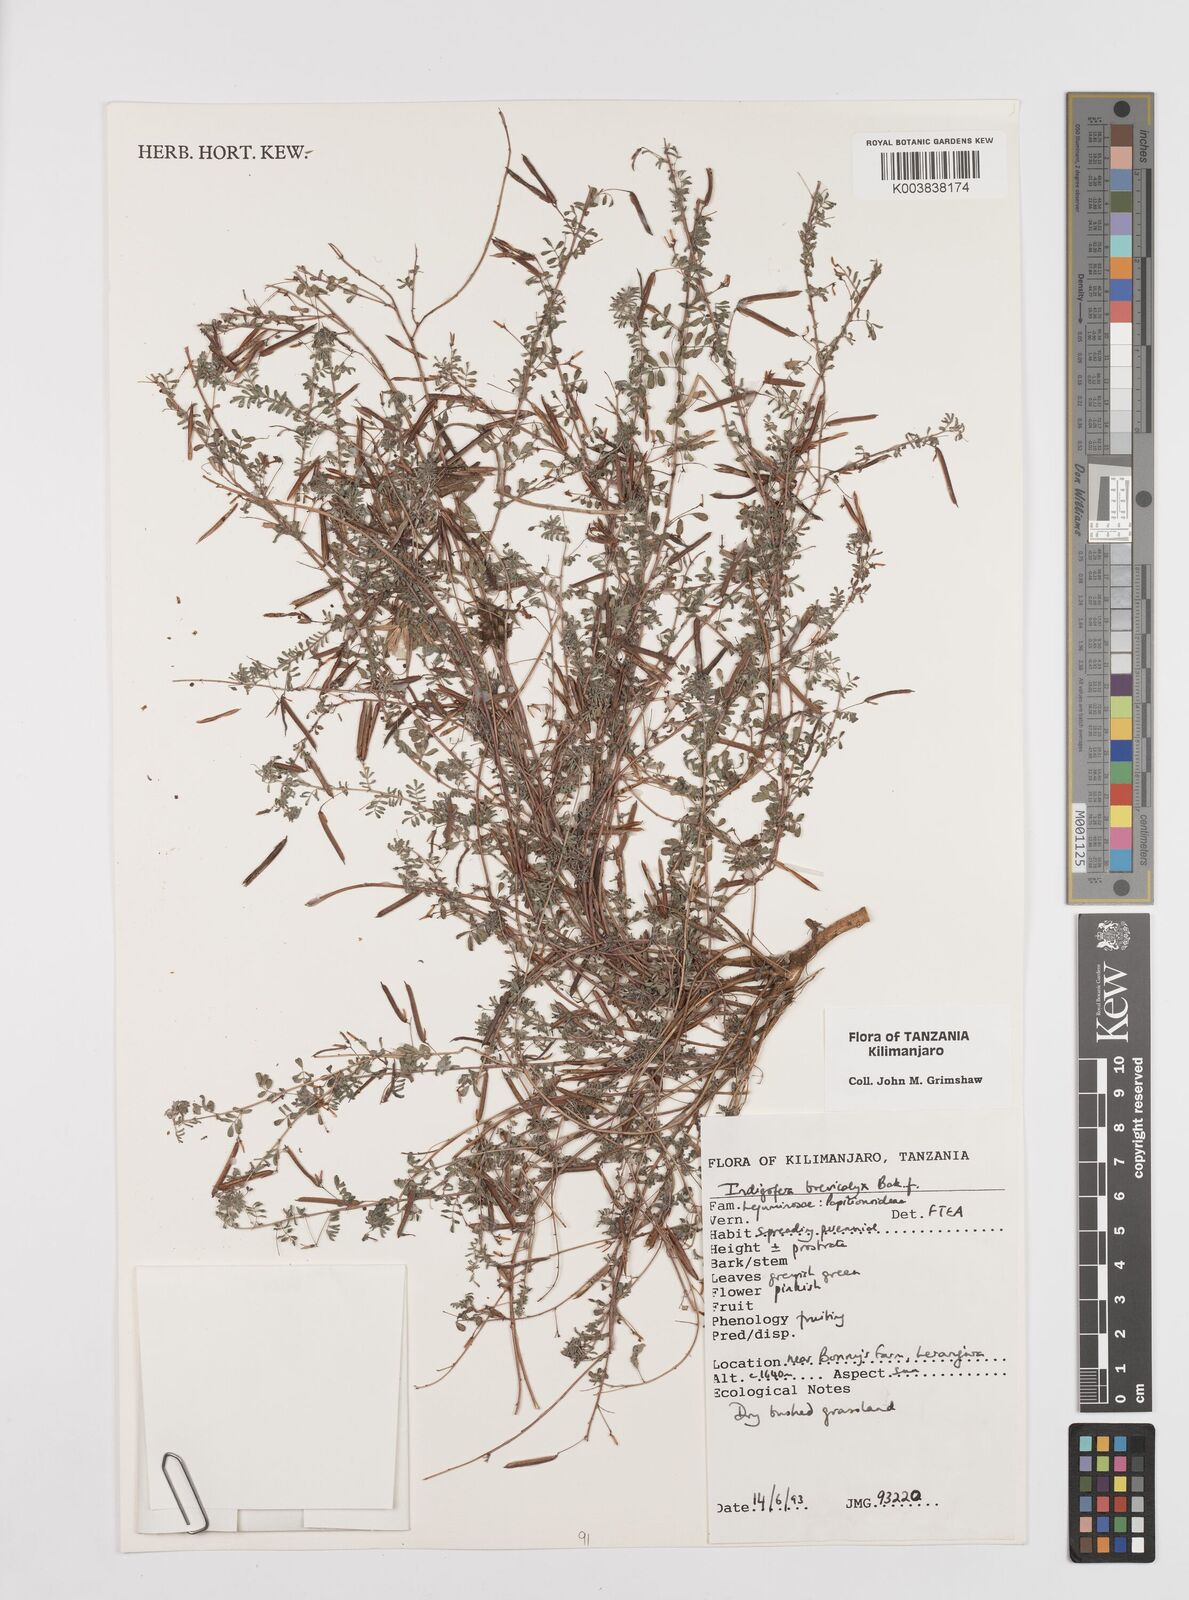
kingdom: Plantae
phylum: Tracheophyta
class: Magnoliopsida
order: Fabales
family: Fabaceae
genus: Indigofera
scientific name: Indigofera brevicalyx
